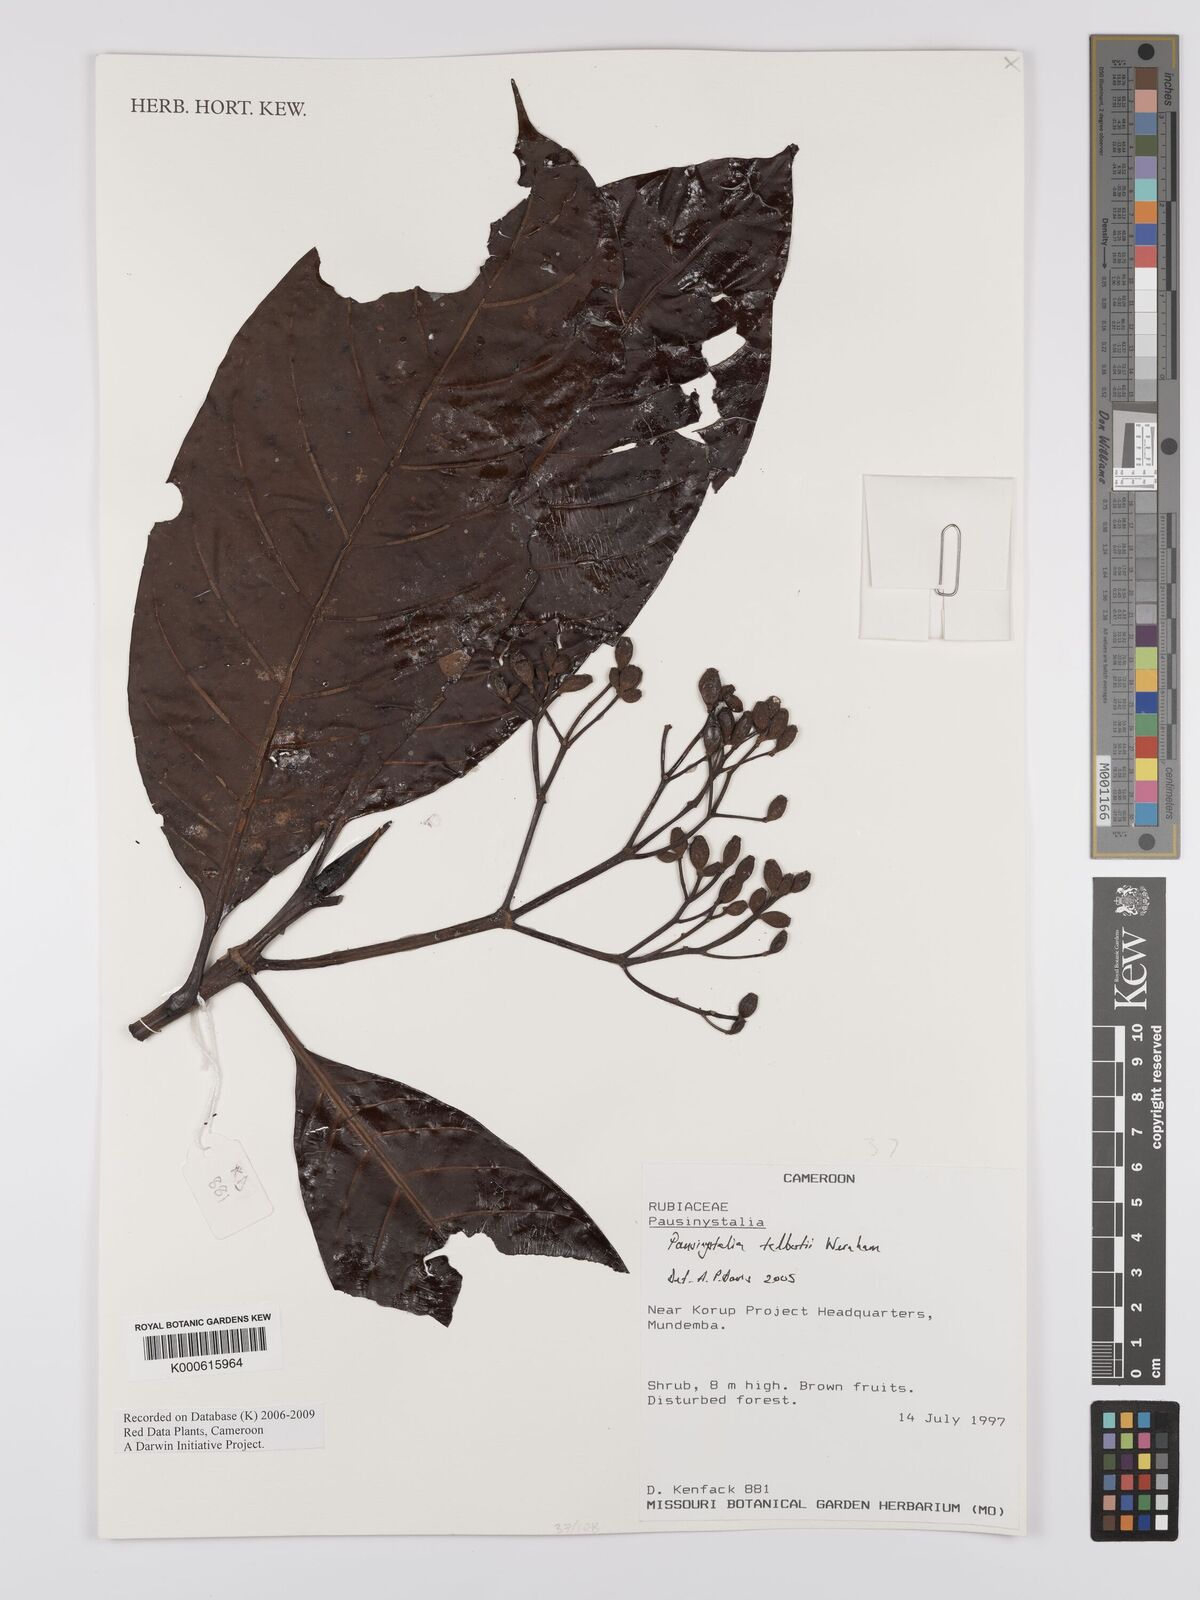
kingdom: Plantae
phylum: Tracheophyta
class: Magnoliopsida
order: Gentianales
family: Rubiaceae
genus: Corynanthe
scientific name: Corynanthe talbotii
